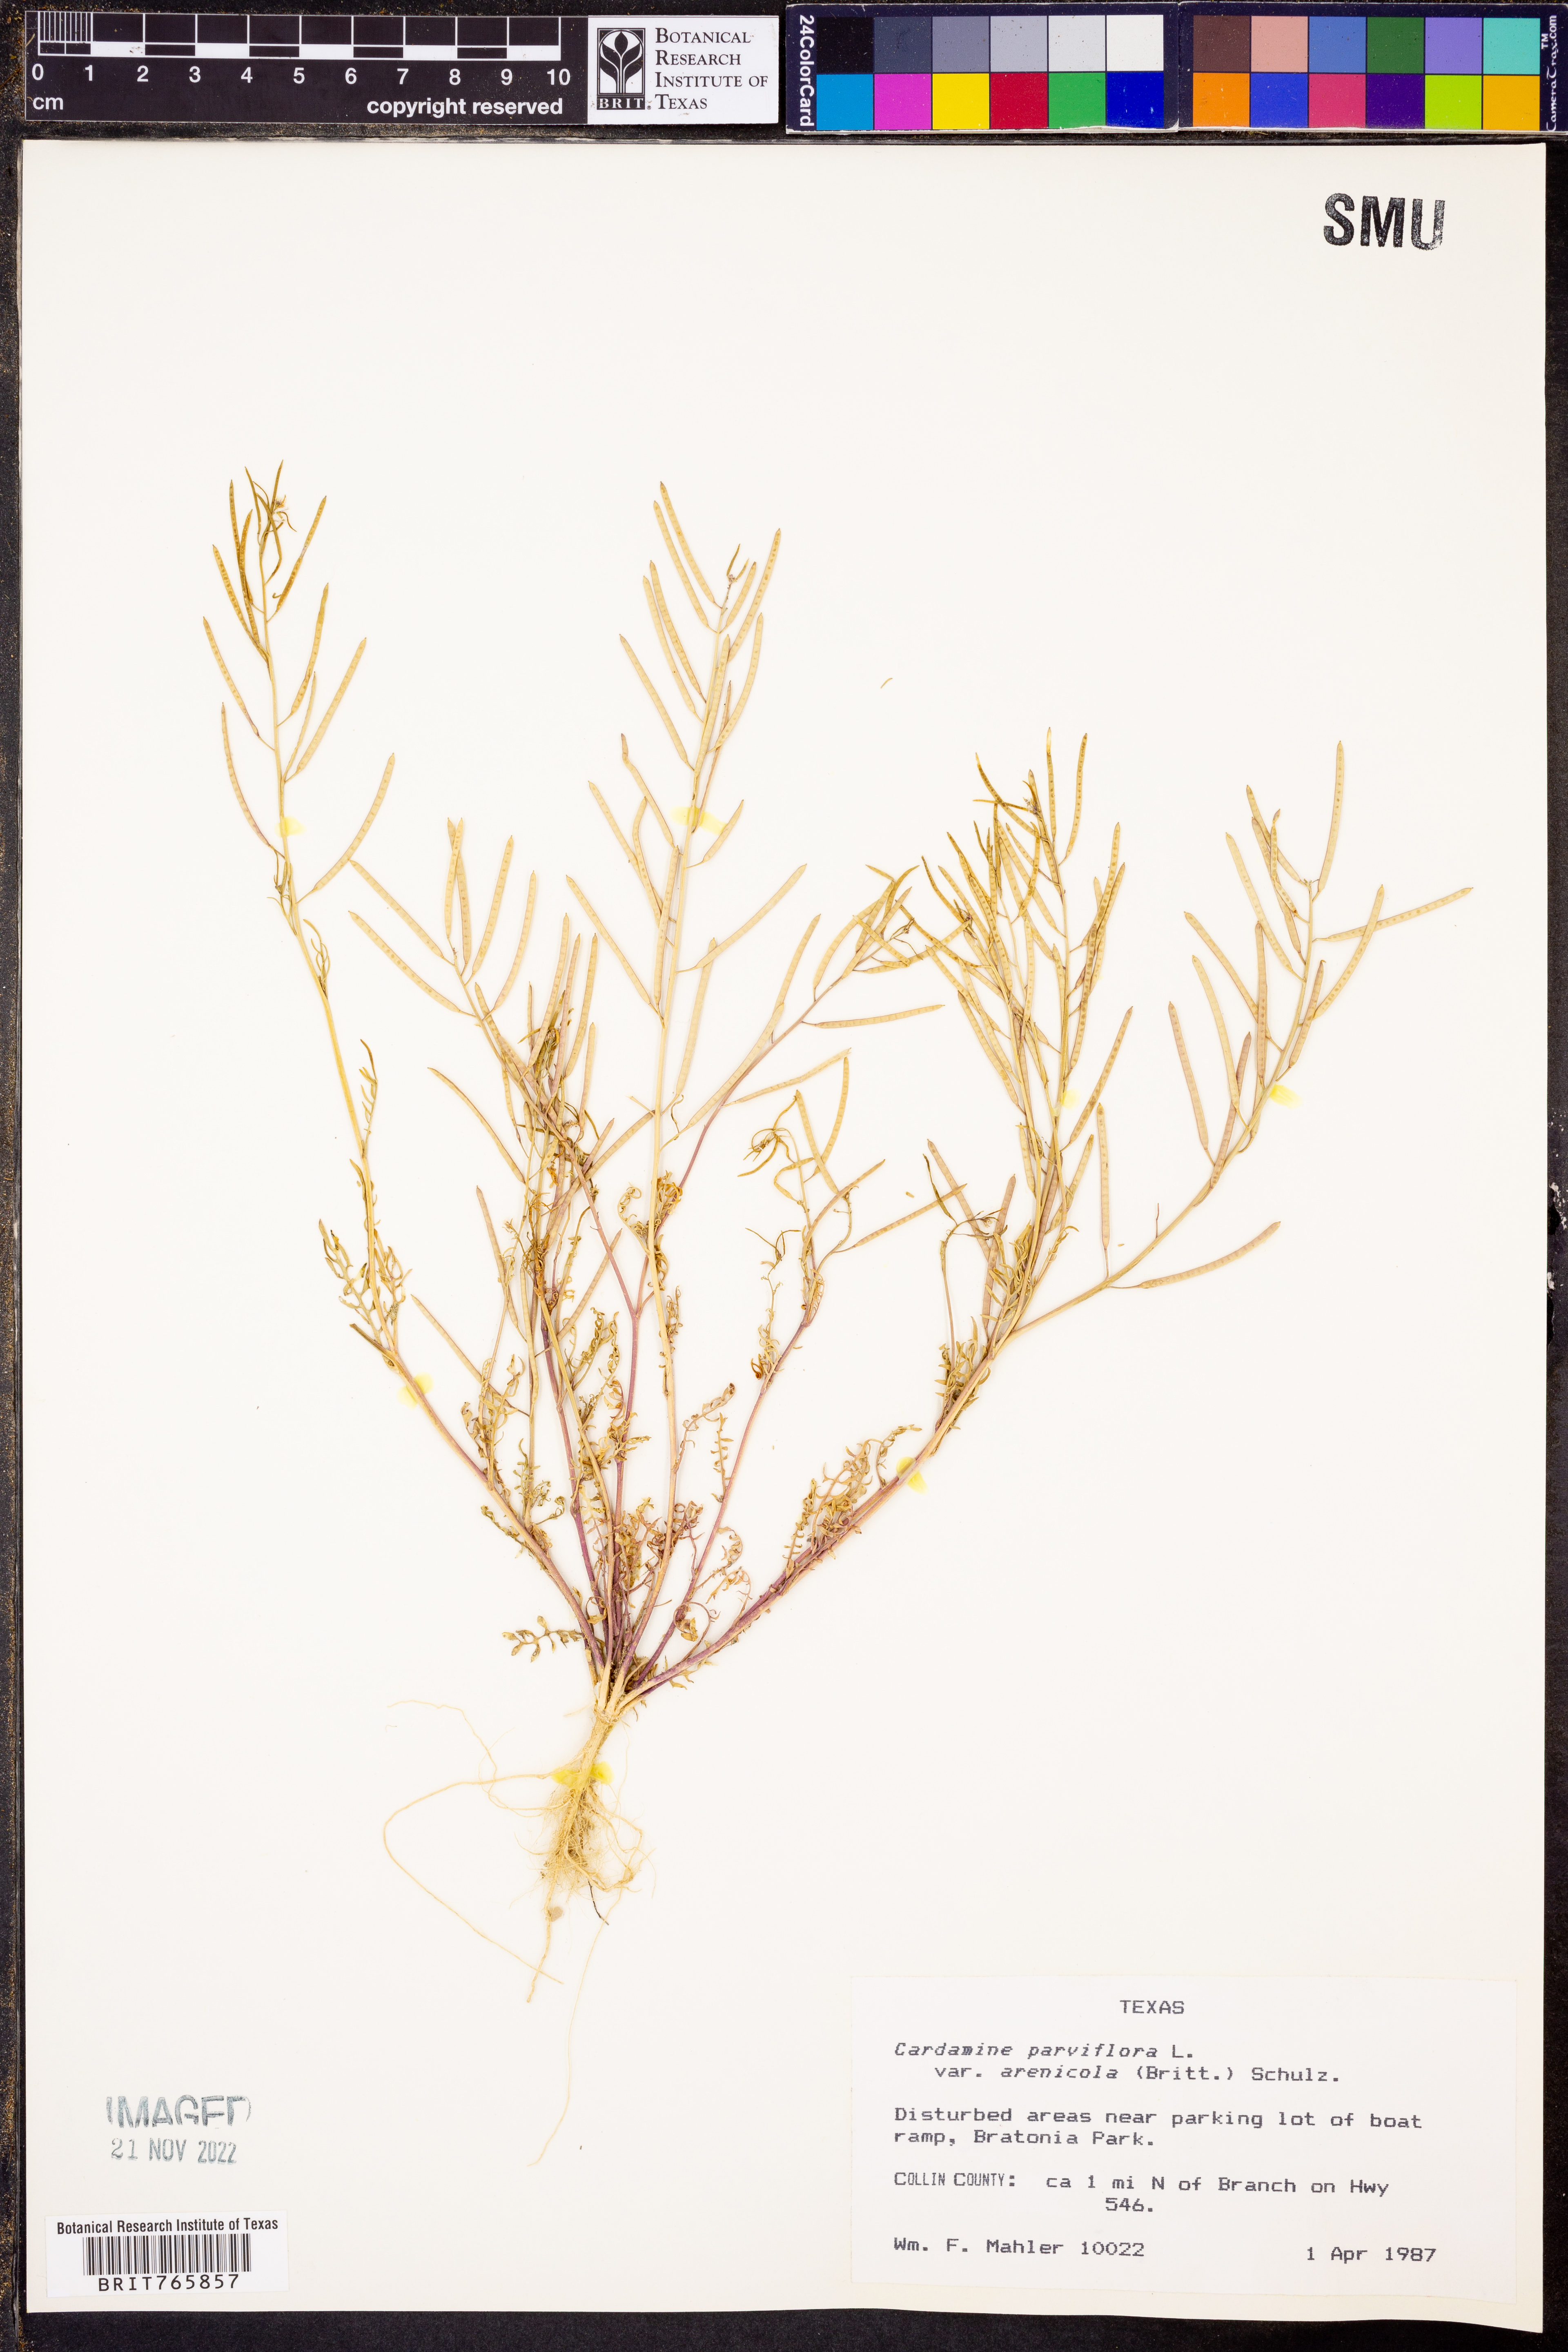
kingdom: Plantae
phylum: Tracheophyta
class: Magnoliopsida
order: Brassicales
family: Brassicaceae
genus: Cardamine
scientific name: Cardamine parviflora
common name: Sand bittercress
